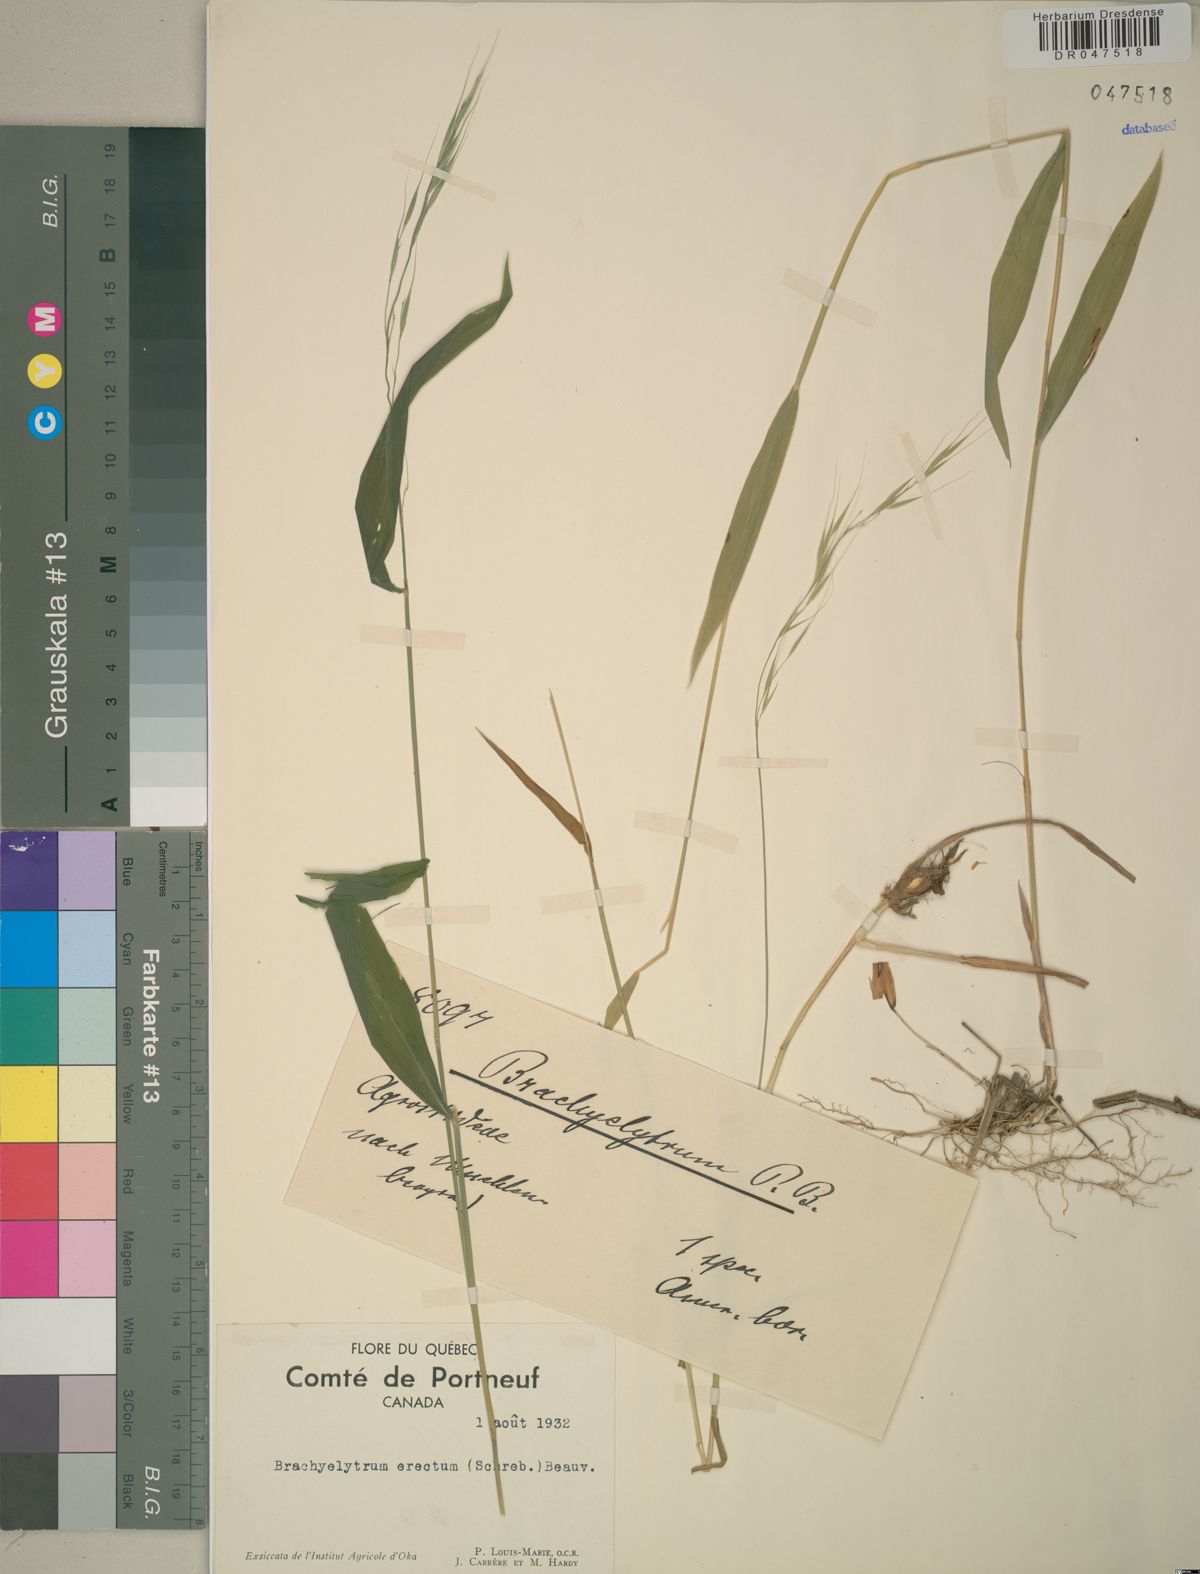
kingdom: Plantae
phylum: Tracheophyta
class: Liliopsida
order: Poales
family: Poaceae
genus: Brachyelytrum
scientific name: Brachyelytrum erectum
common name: Bearded shorthusk
